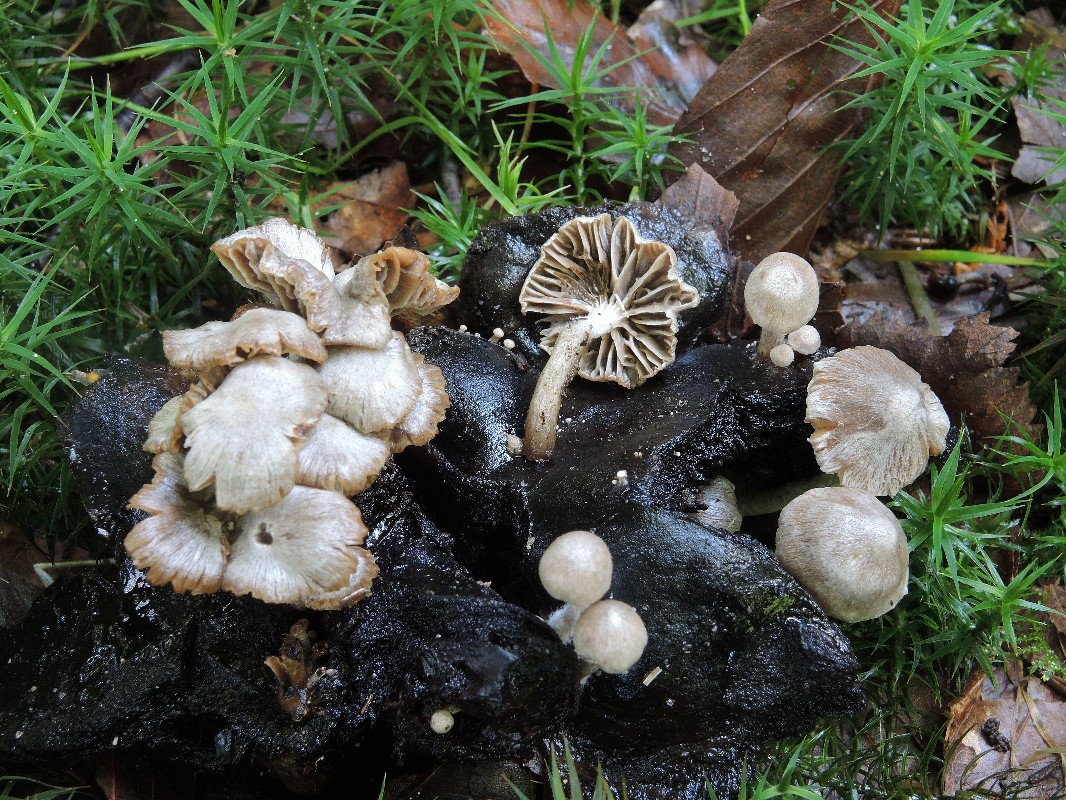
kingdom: Fungi
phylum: Basidiomycota
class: Agaricomycetes
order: Agaricales
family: Lyophyllaceae
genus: Asterophora
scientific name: Asterophora parasitica
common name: grå snyltehat
